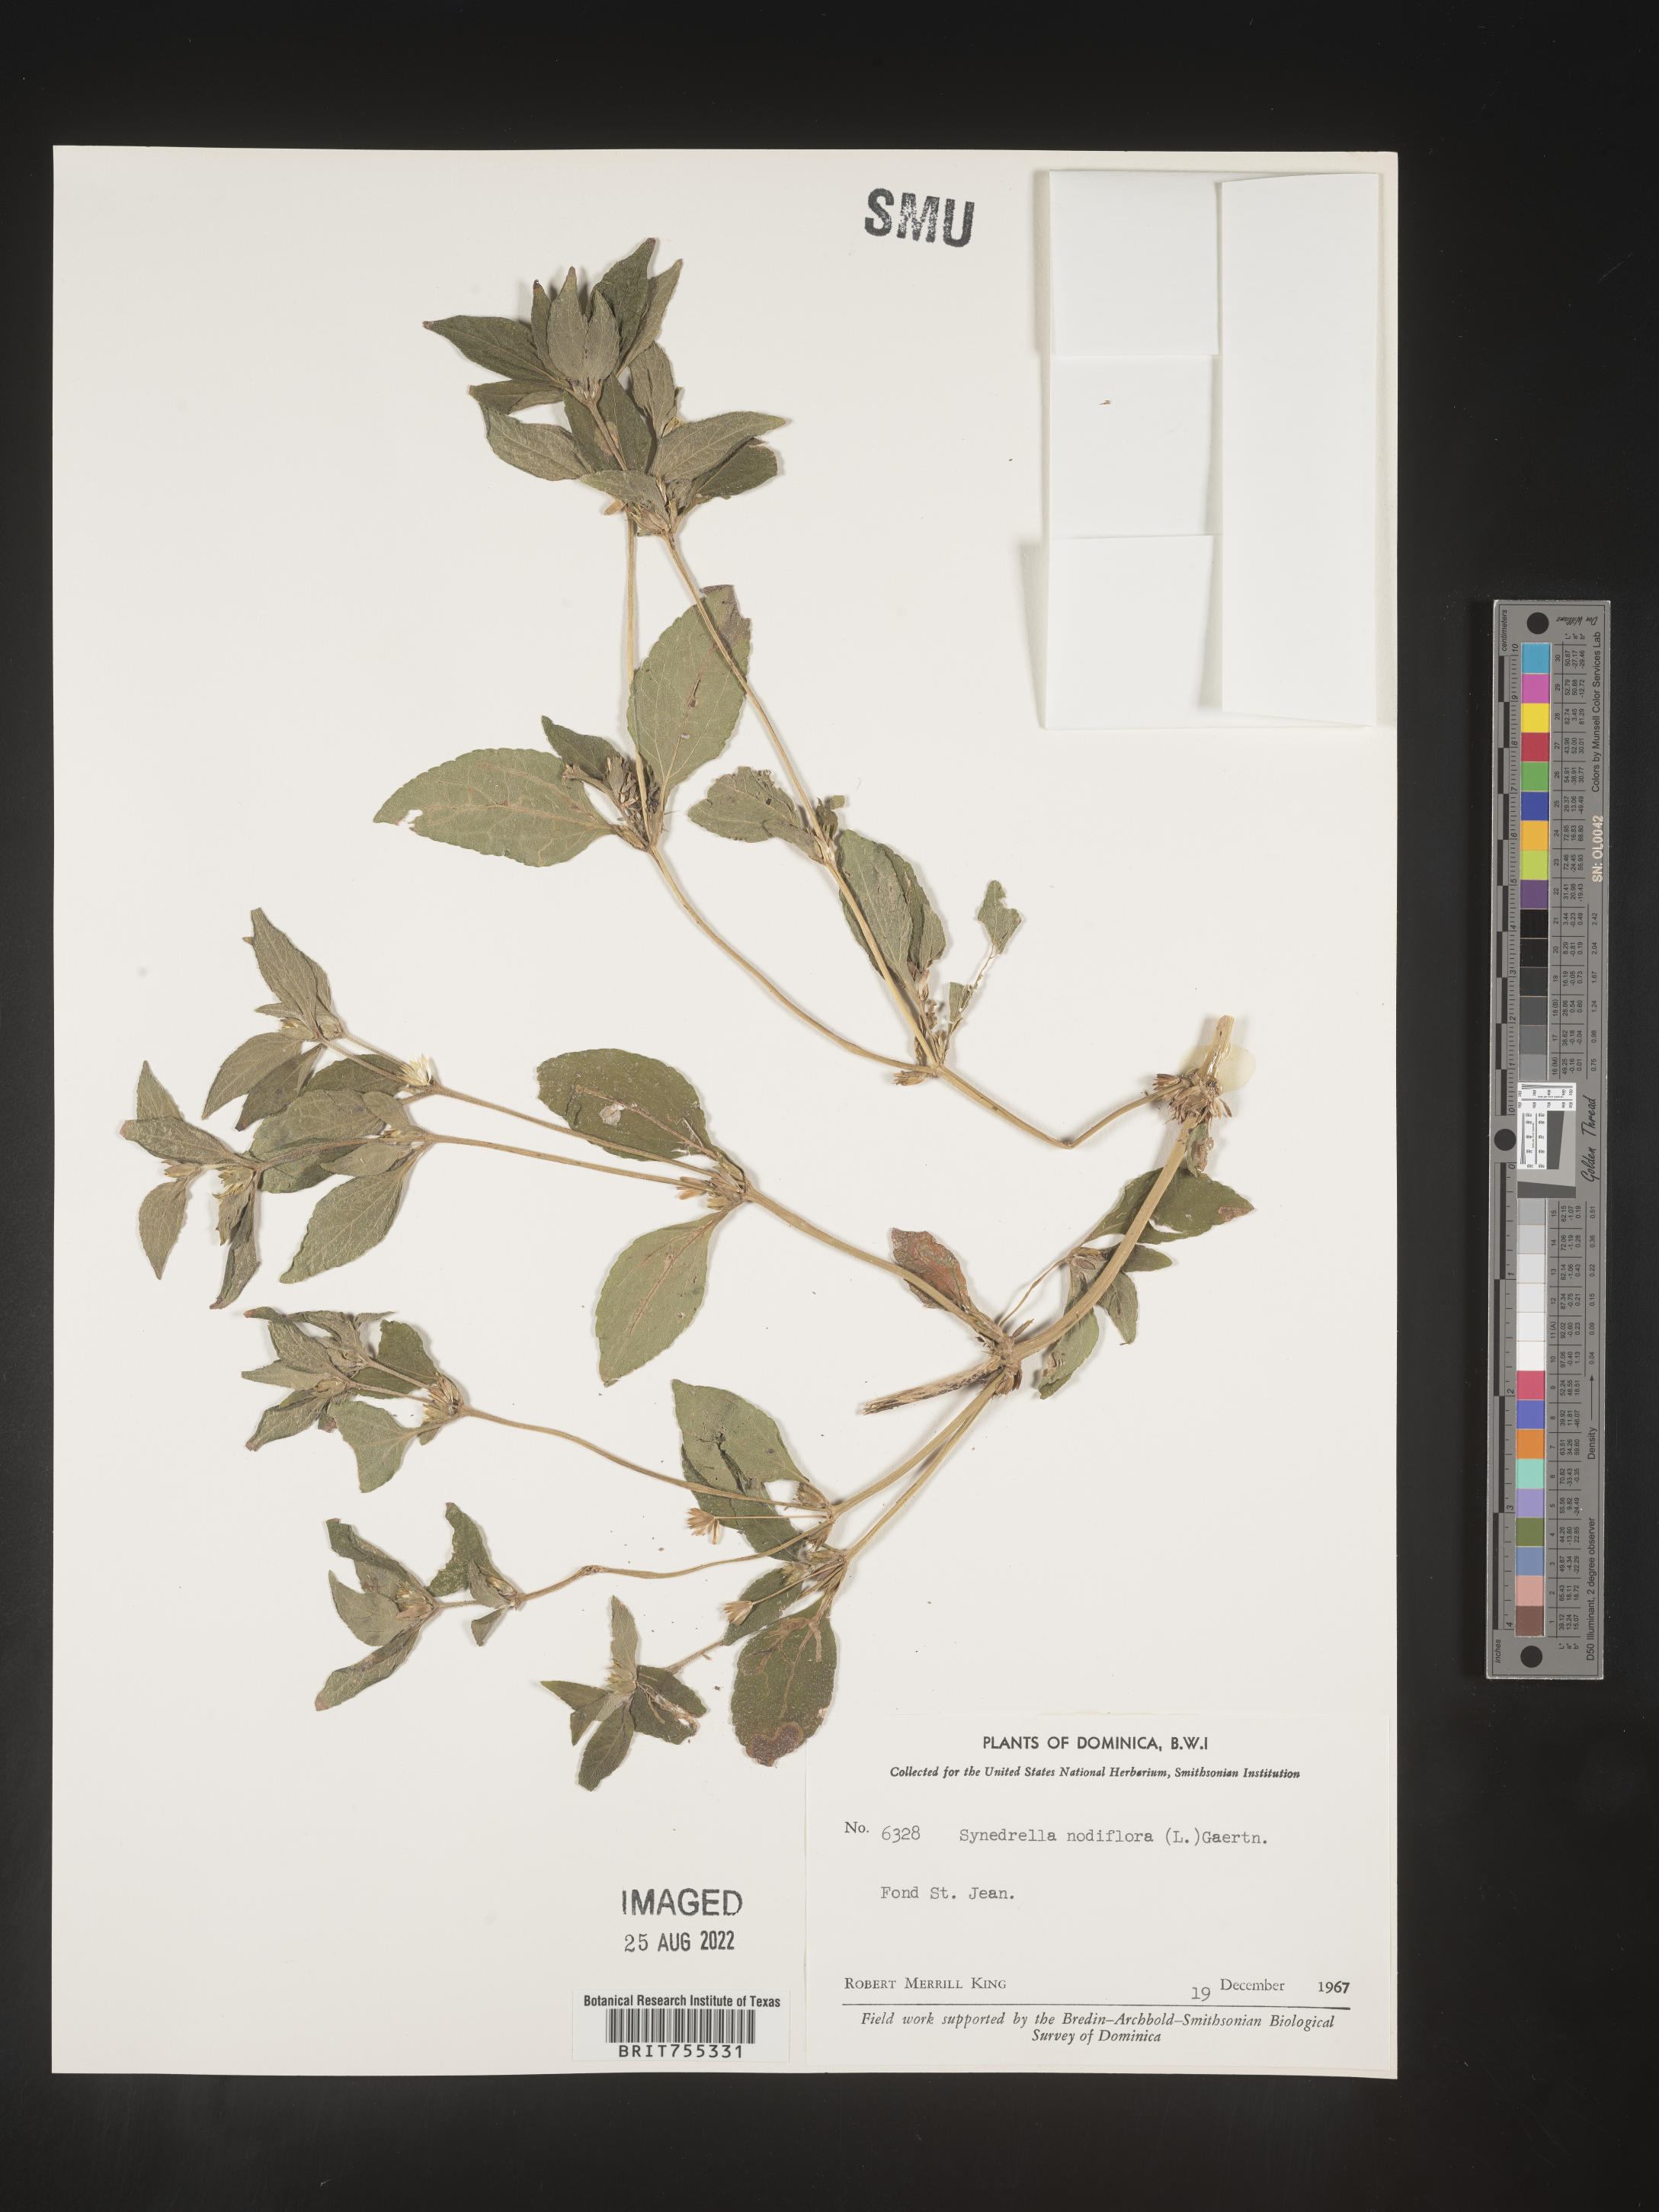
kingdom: Plantae
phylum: Tracheophyta
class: Magnoliopsida
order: Asterales
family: Asteraceae
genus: Synedrella
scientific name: Synedrella
